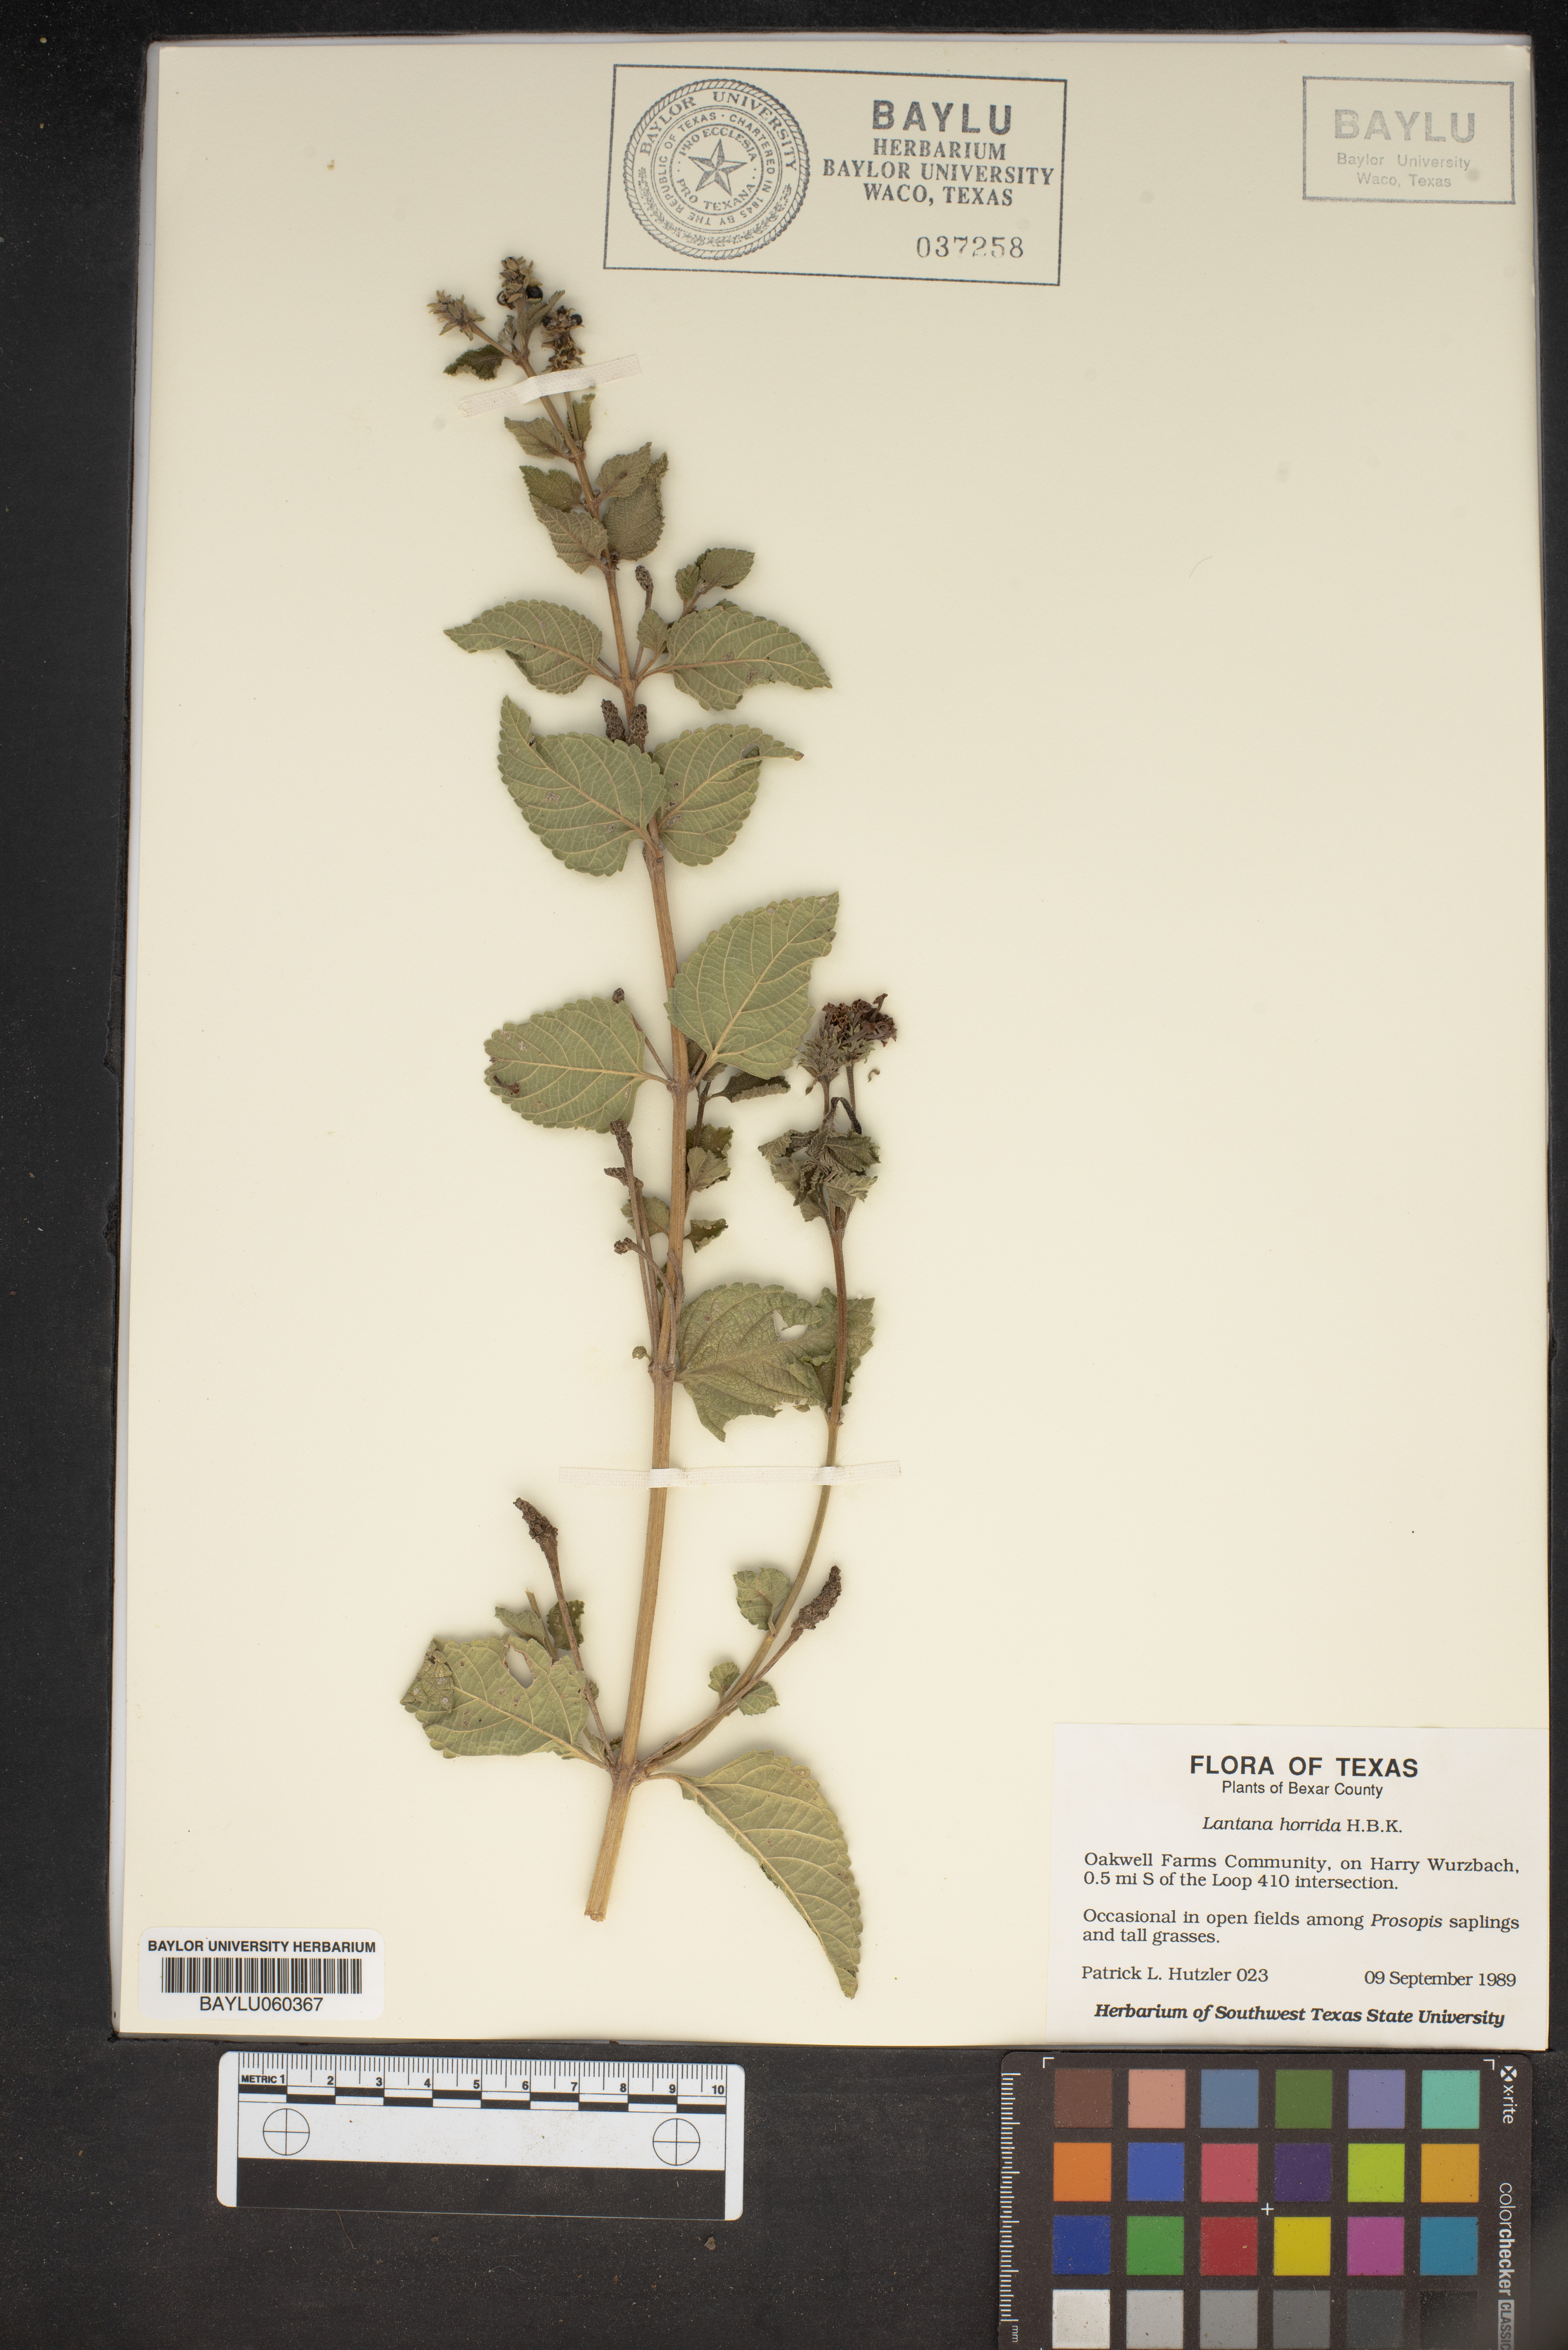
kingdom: Plantae
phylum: Tracheophyta
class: Magnoliopsida
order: Lamiales
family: Verbenaceae
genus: Lantana
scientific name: Lantana horrida
